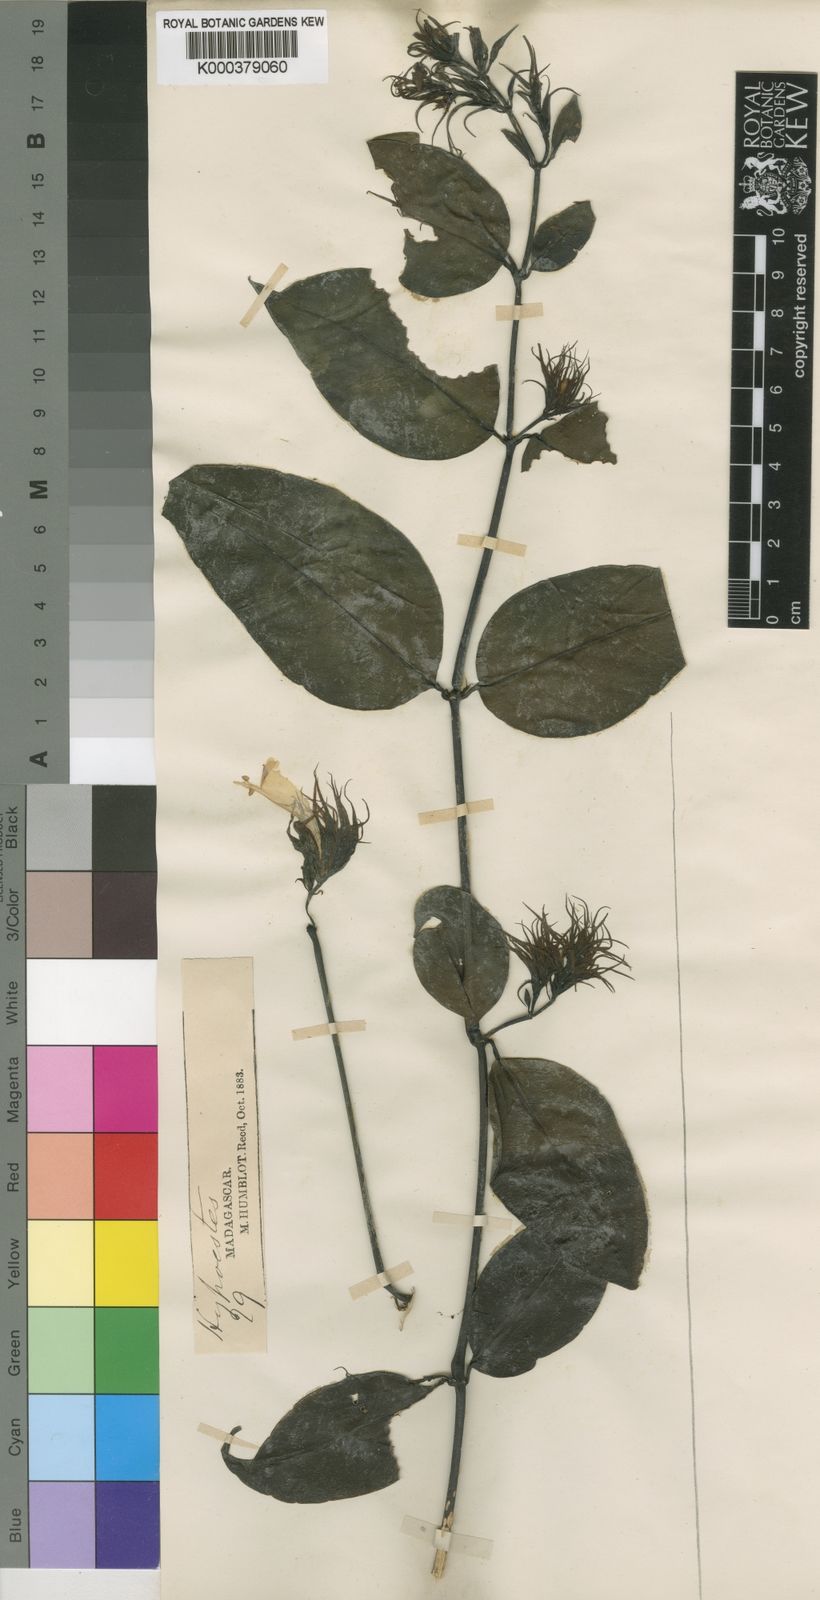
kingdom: Plantae
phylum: Tracheophyta
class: Magnoliopsida
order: Lamiales
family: Acanthaceae
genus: Hypoestes
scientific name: Hypoestes comosa
